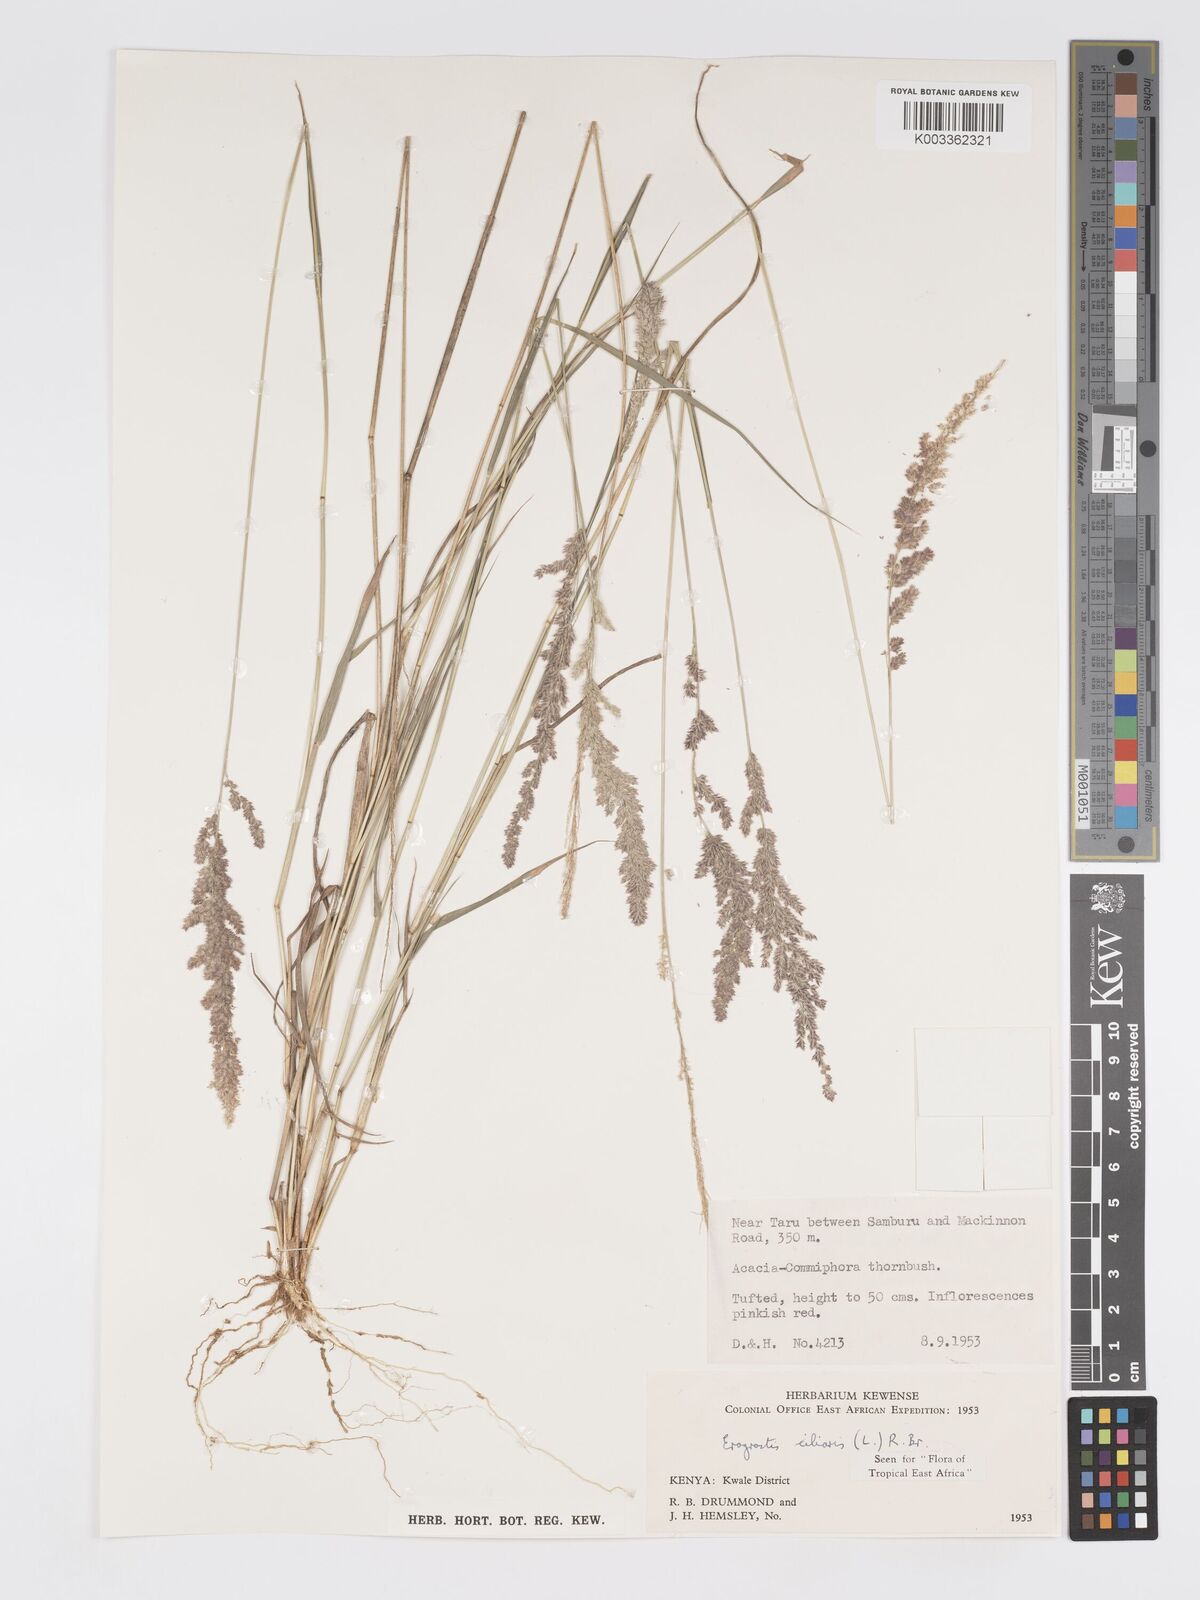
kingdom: Plantae
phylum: Tracheophyta
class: Liliopsida
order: Poales
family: Poaceae
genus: Eragrostis
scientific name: Eragrostis ciliaris
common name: Gophertail lovegrass
